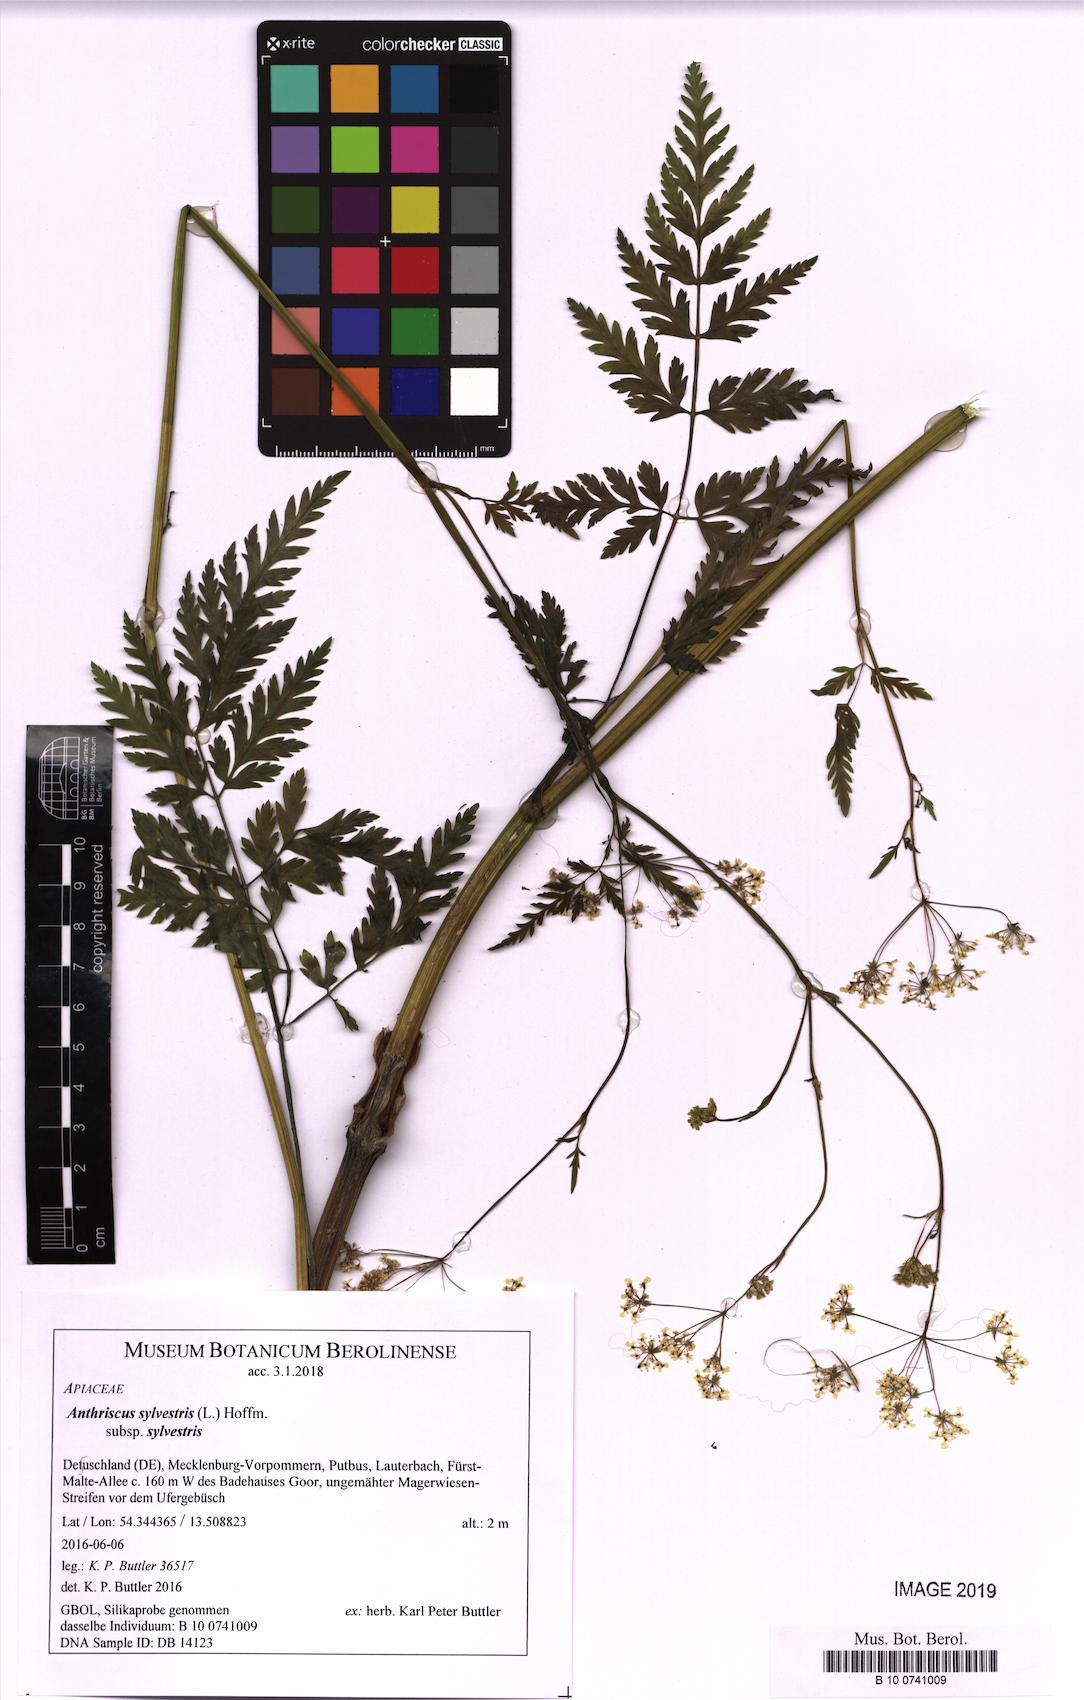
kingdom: Plantae
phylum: Tracheophyta
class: Magnoliopsida
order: Apiales
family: Apiaceae
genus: Anthriscus
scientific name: Anthriscus sylvestris
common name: Cow parsley
